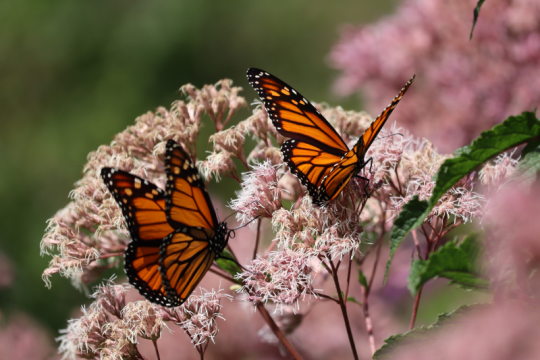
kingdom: Animalia
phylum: Arthropoda
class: Insecta
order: Lepidoptera
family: Nymphalidae
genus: Danaus
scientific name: Danaus plexippus
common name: Monarch
